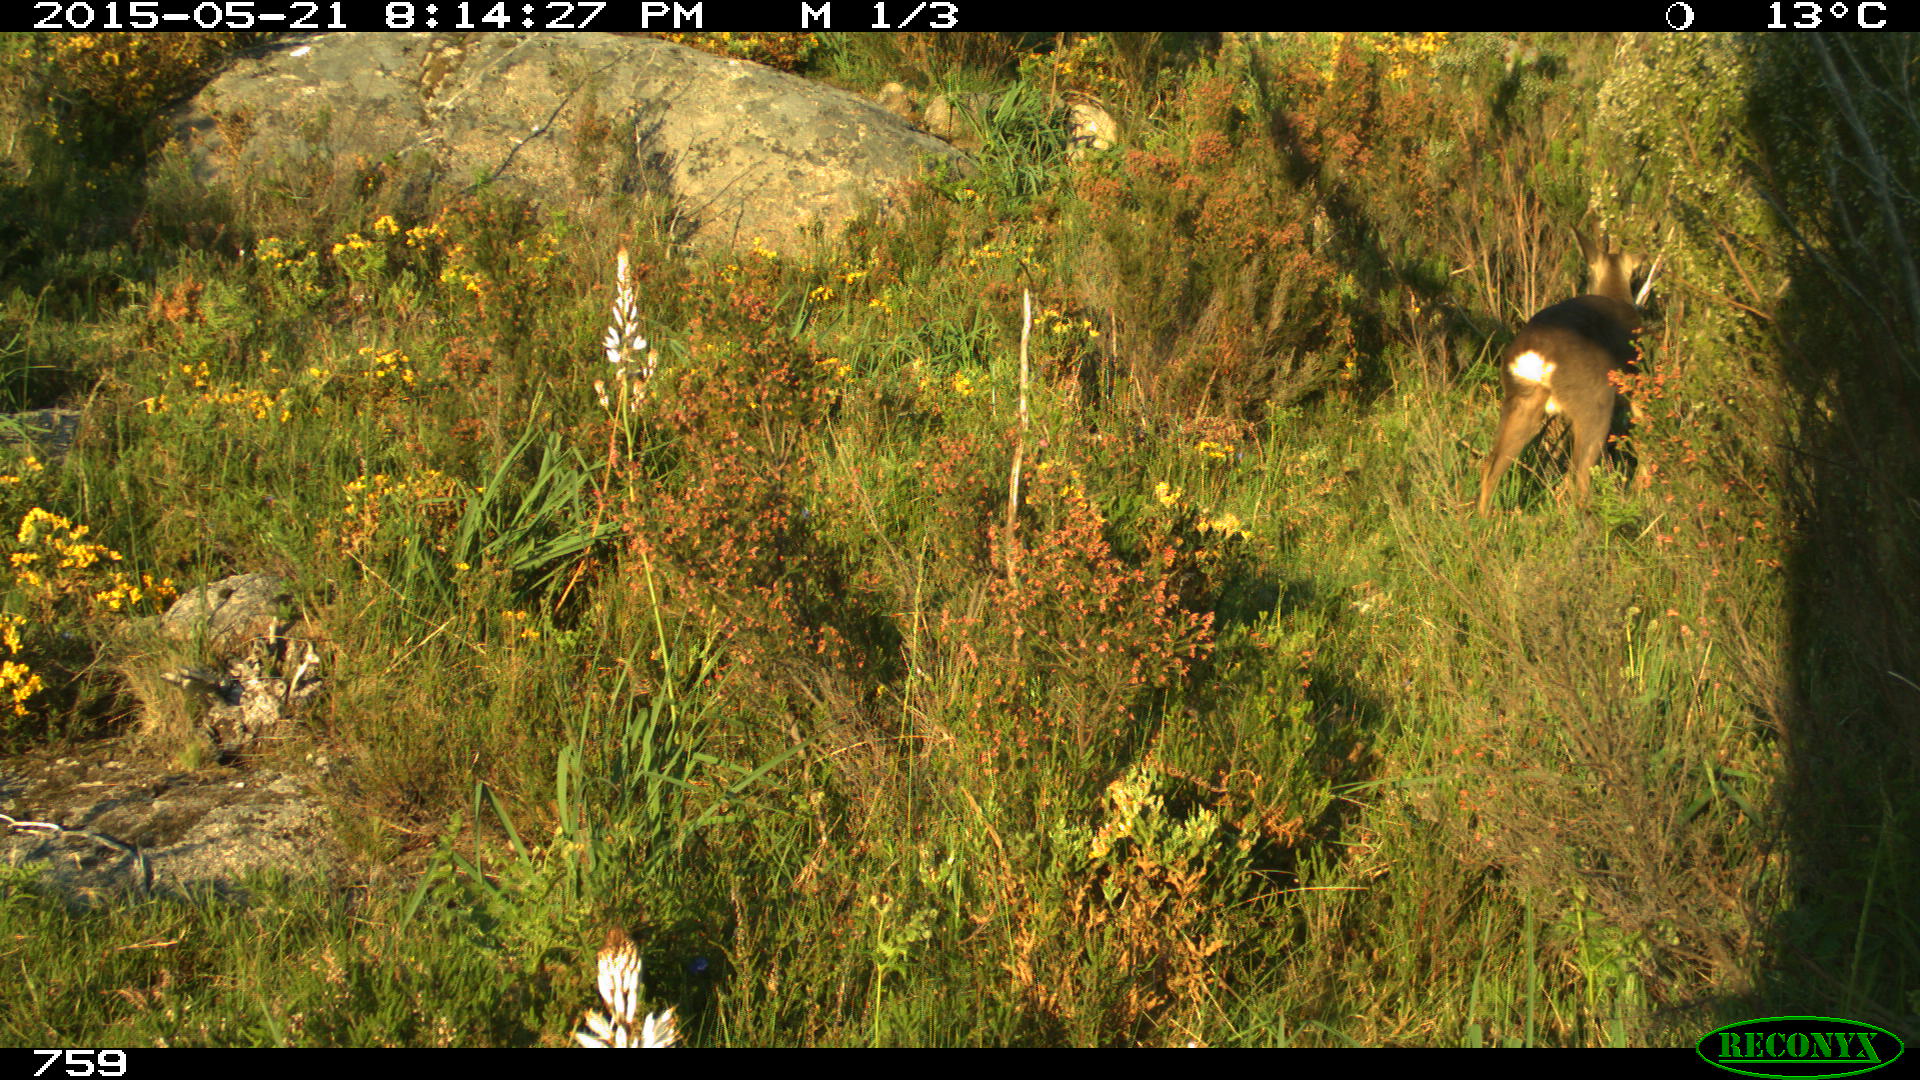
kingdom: Animalia
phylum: Chordata
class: Mammalia
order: Artiodactyla
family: Cervidae
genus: Capreolus
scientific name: Capreolus capreolus
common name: Western roe deer
